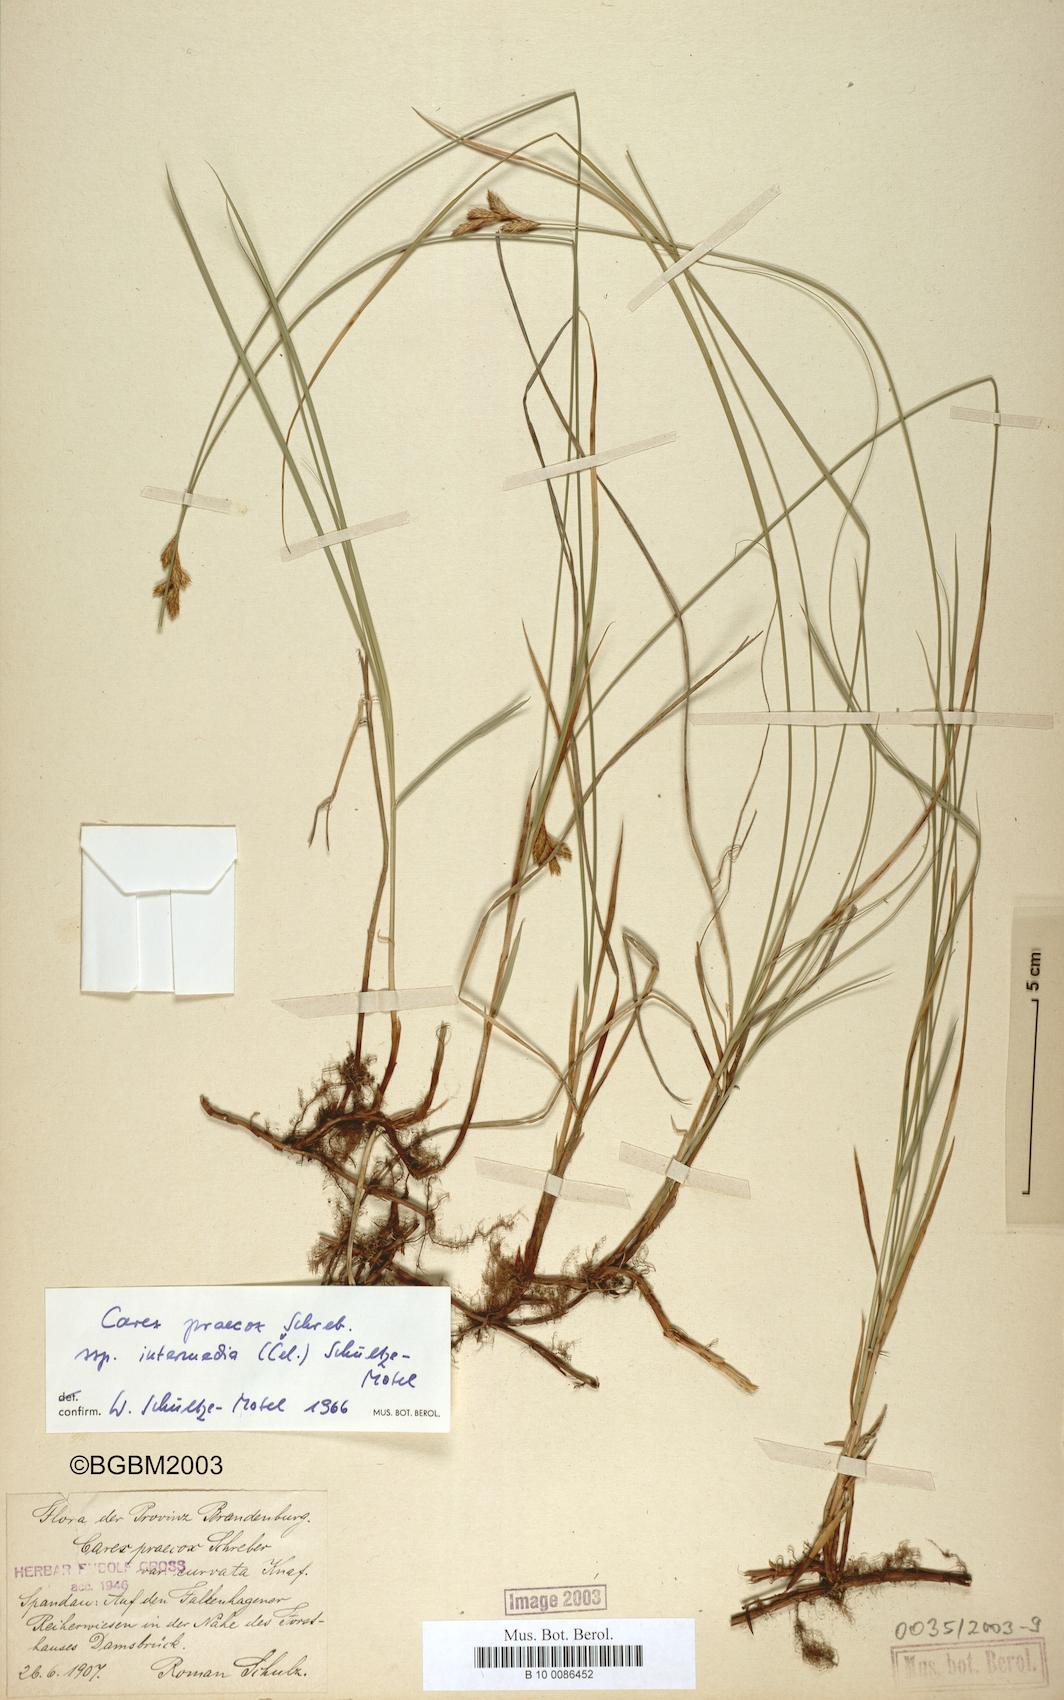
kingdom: Plantae
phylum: Tracheophyta
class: Liliopsida
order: Poales
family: Cyperaceae
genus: Carex
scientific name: Carex curvata
